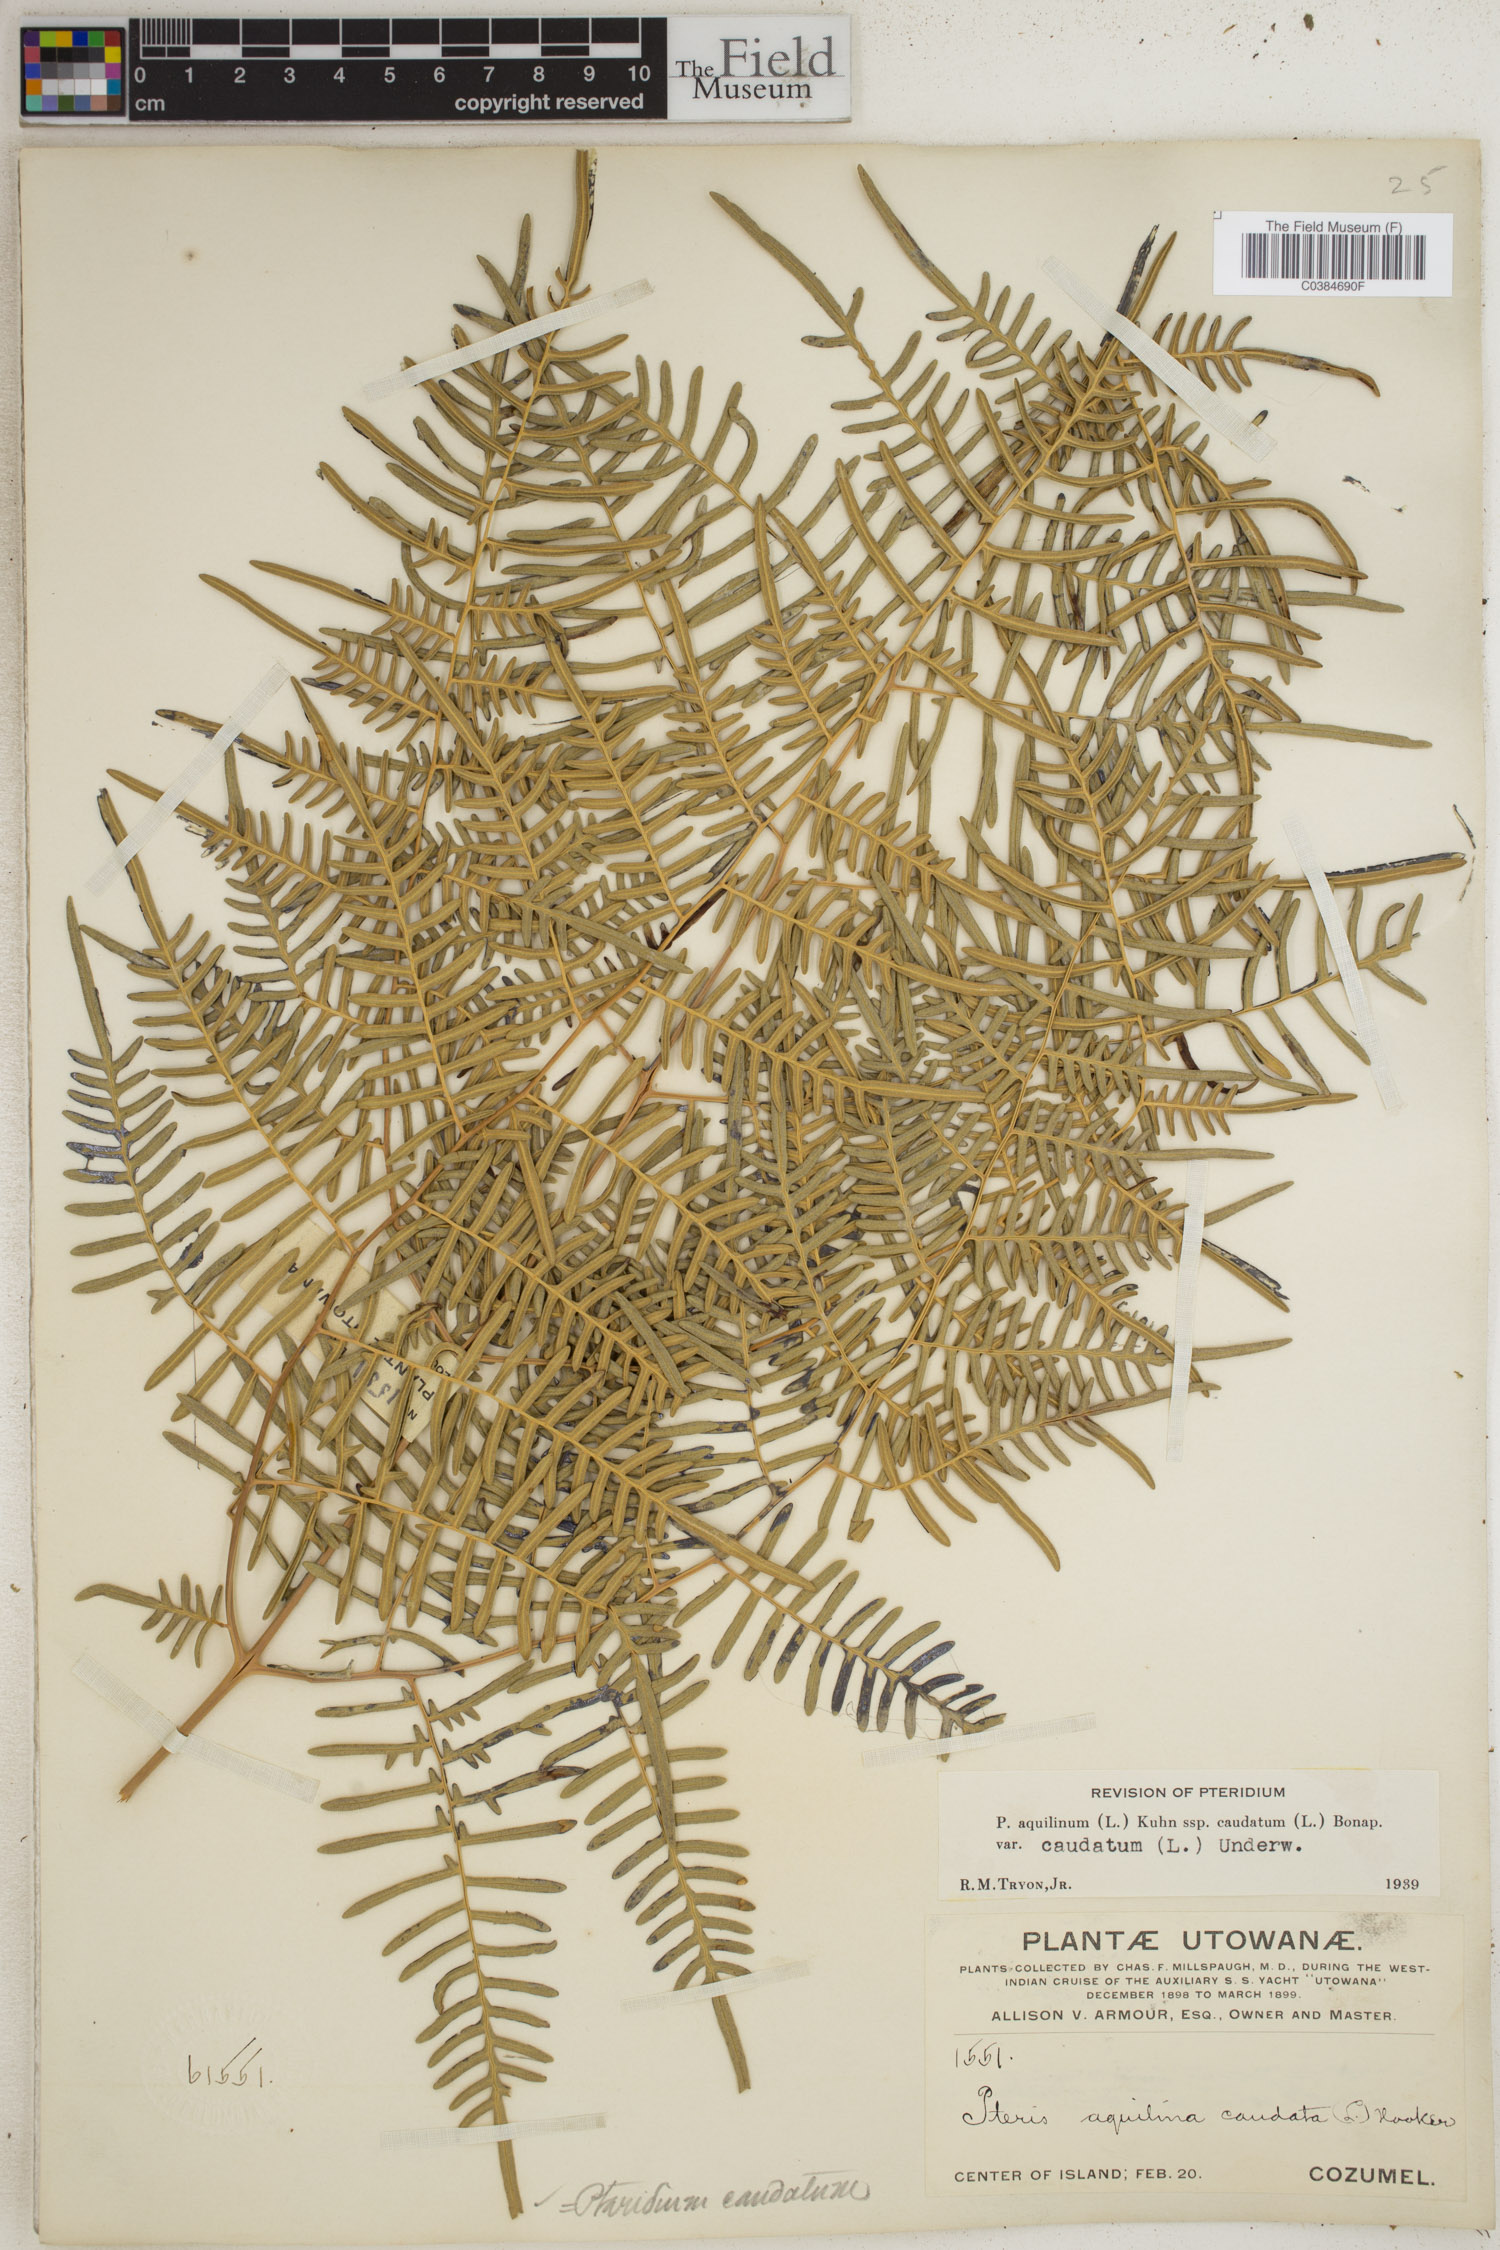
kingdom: Plantae
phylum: Tracheophyta
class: Polypodiopsida
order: Polypodiales
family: Dennstaedtiaceae
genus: Pteridium
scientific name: Pteridium caudatum
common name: Southern bracken fern
